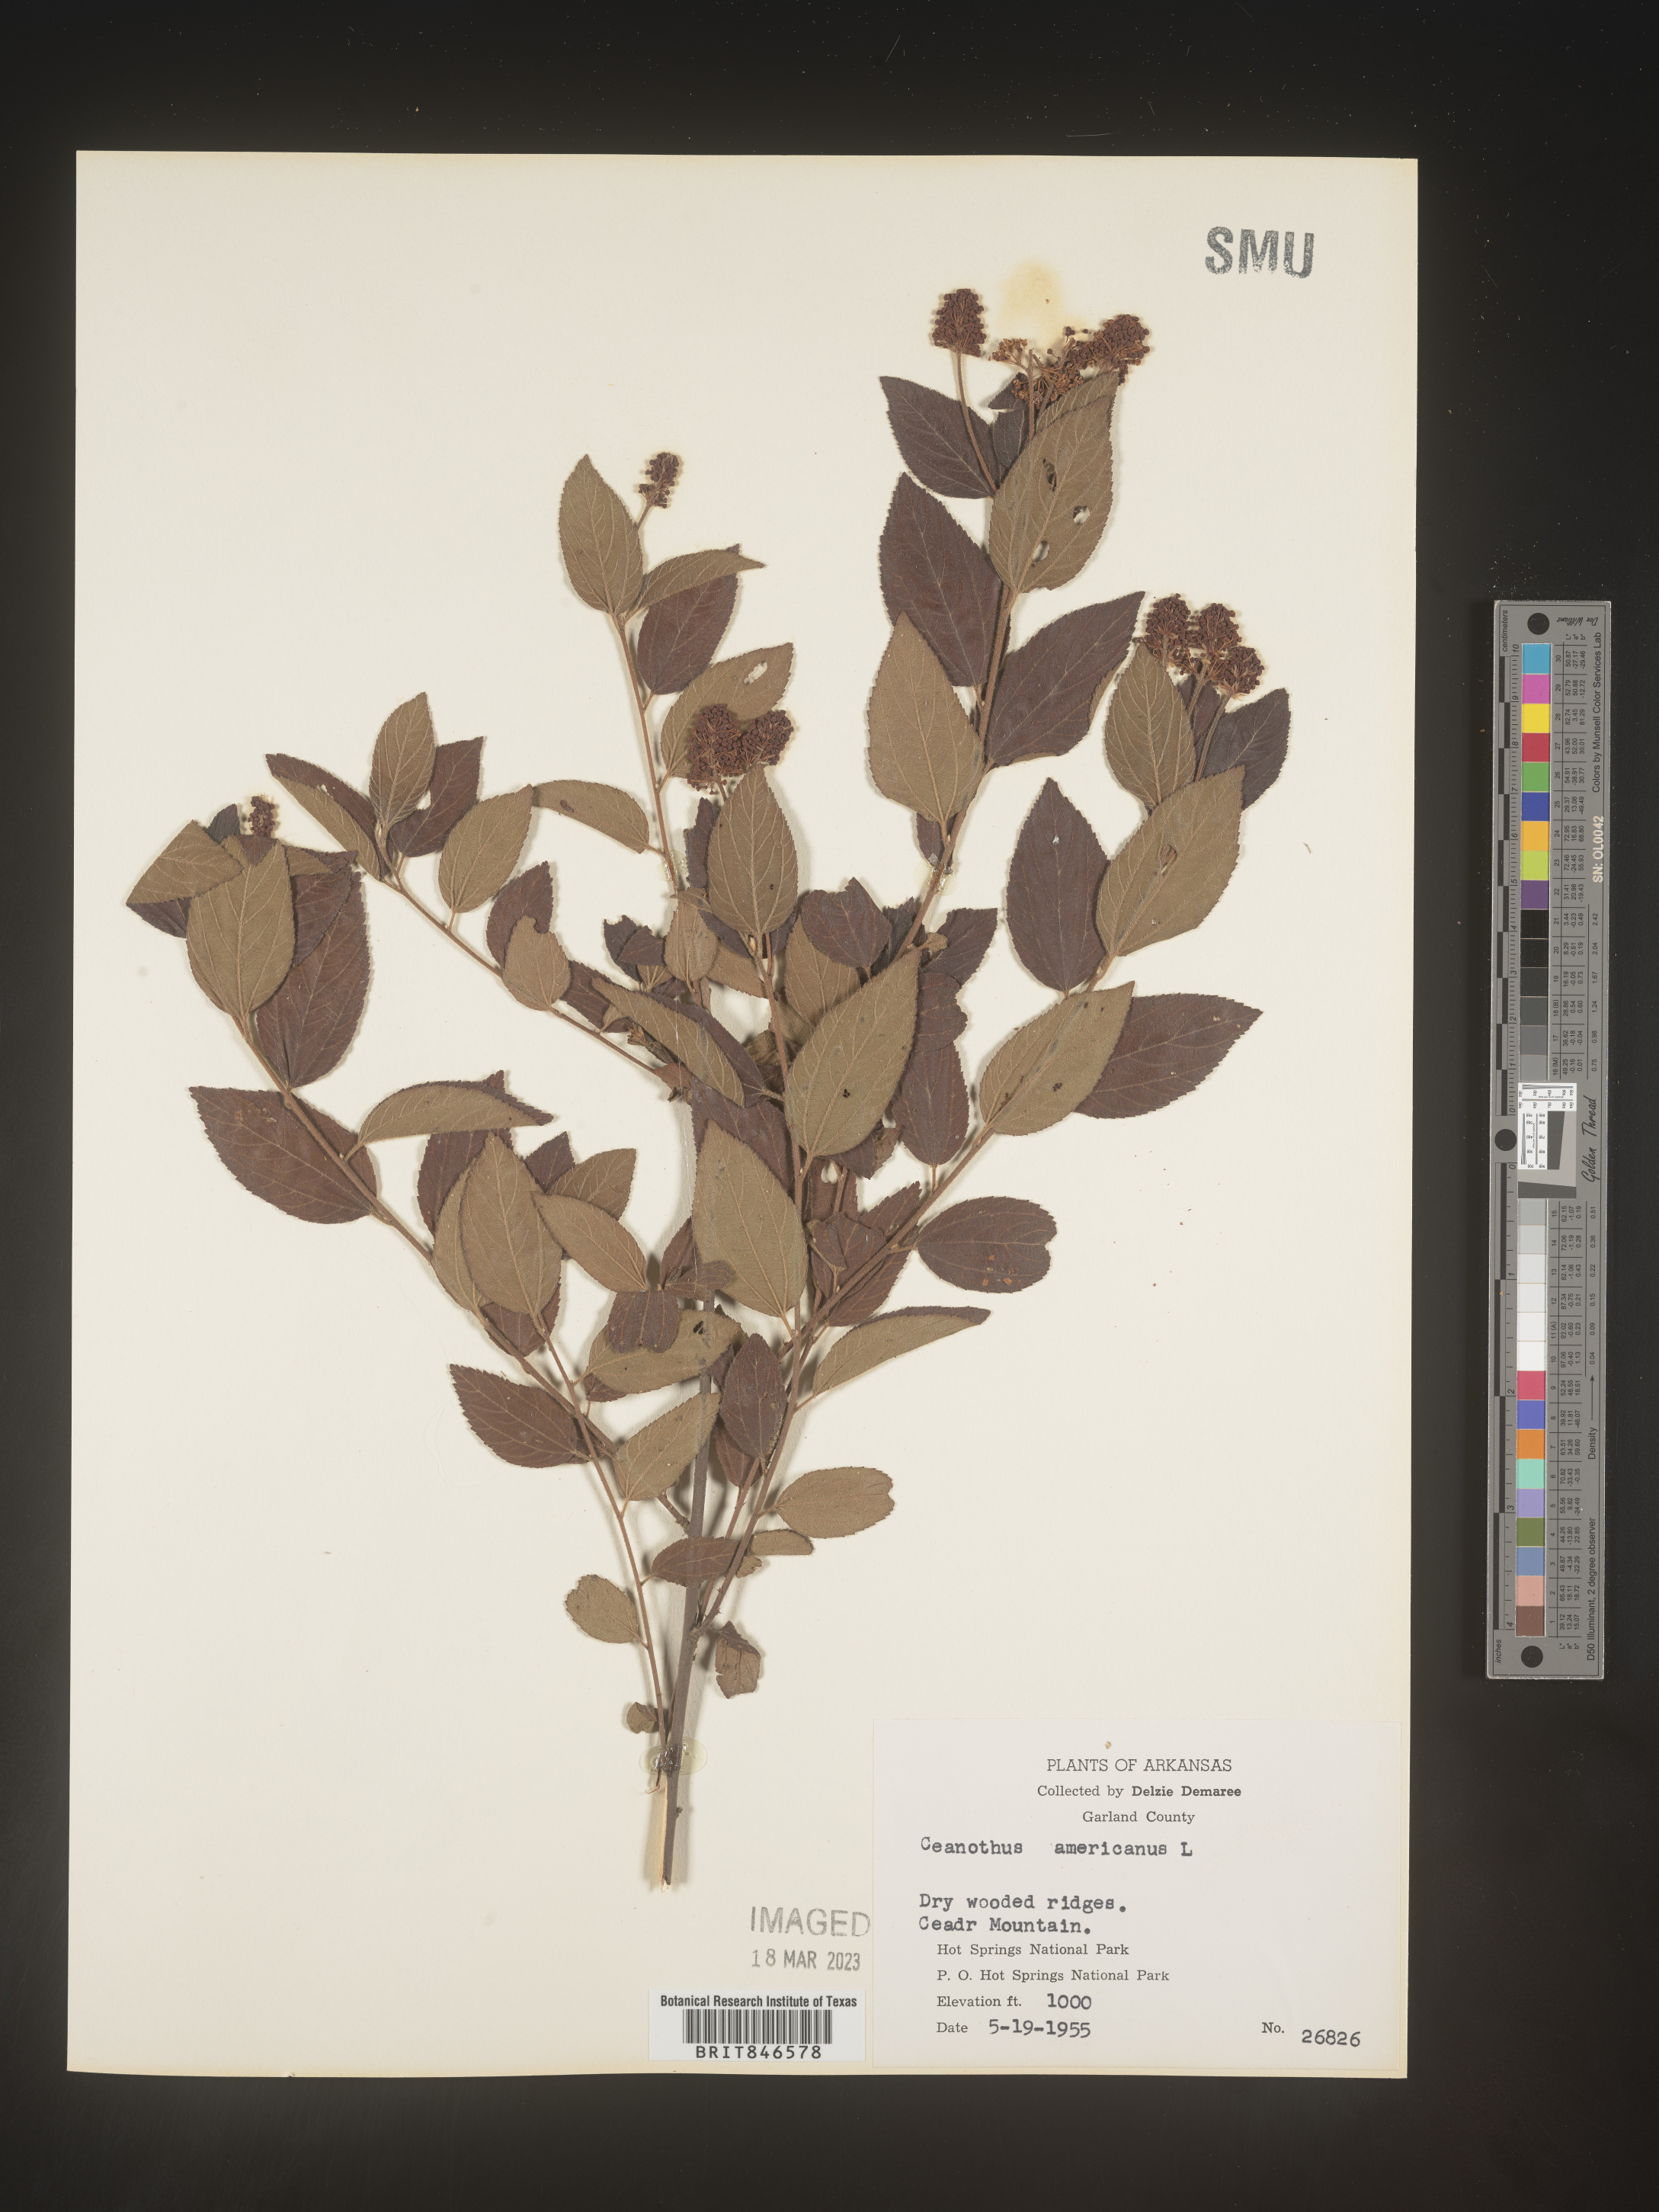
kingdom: Plantae
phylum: Tracheophyta
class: Magnoliopsida
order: Rosales
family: Rhamnaceae
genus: Ceanothus
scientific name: Ceanothus americanus
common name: Redroot
